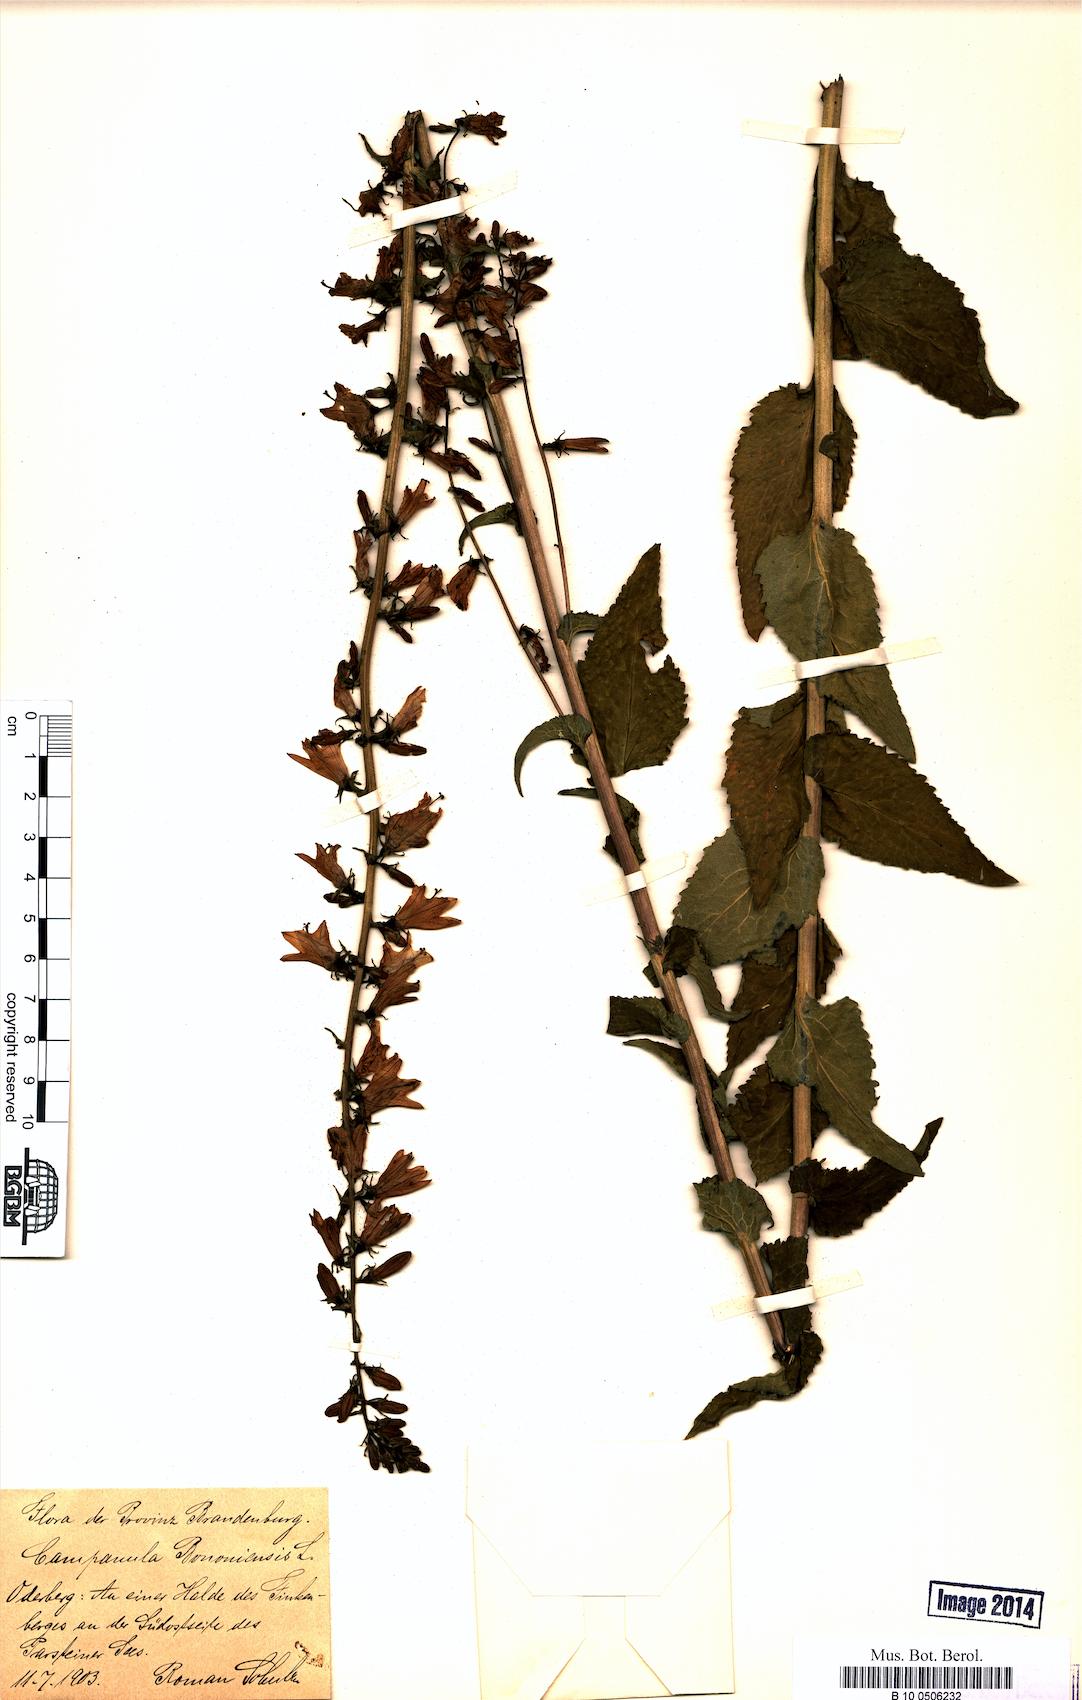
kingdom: Plantae
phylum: Tracheophyta
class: Magnoliopsida
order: Asterales
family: Campanulaceae
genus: Campanula
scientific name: Campanula bononiensis
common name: Pale bellflower
